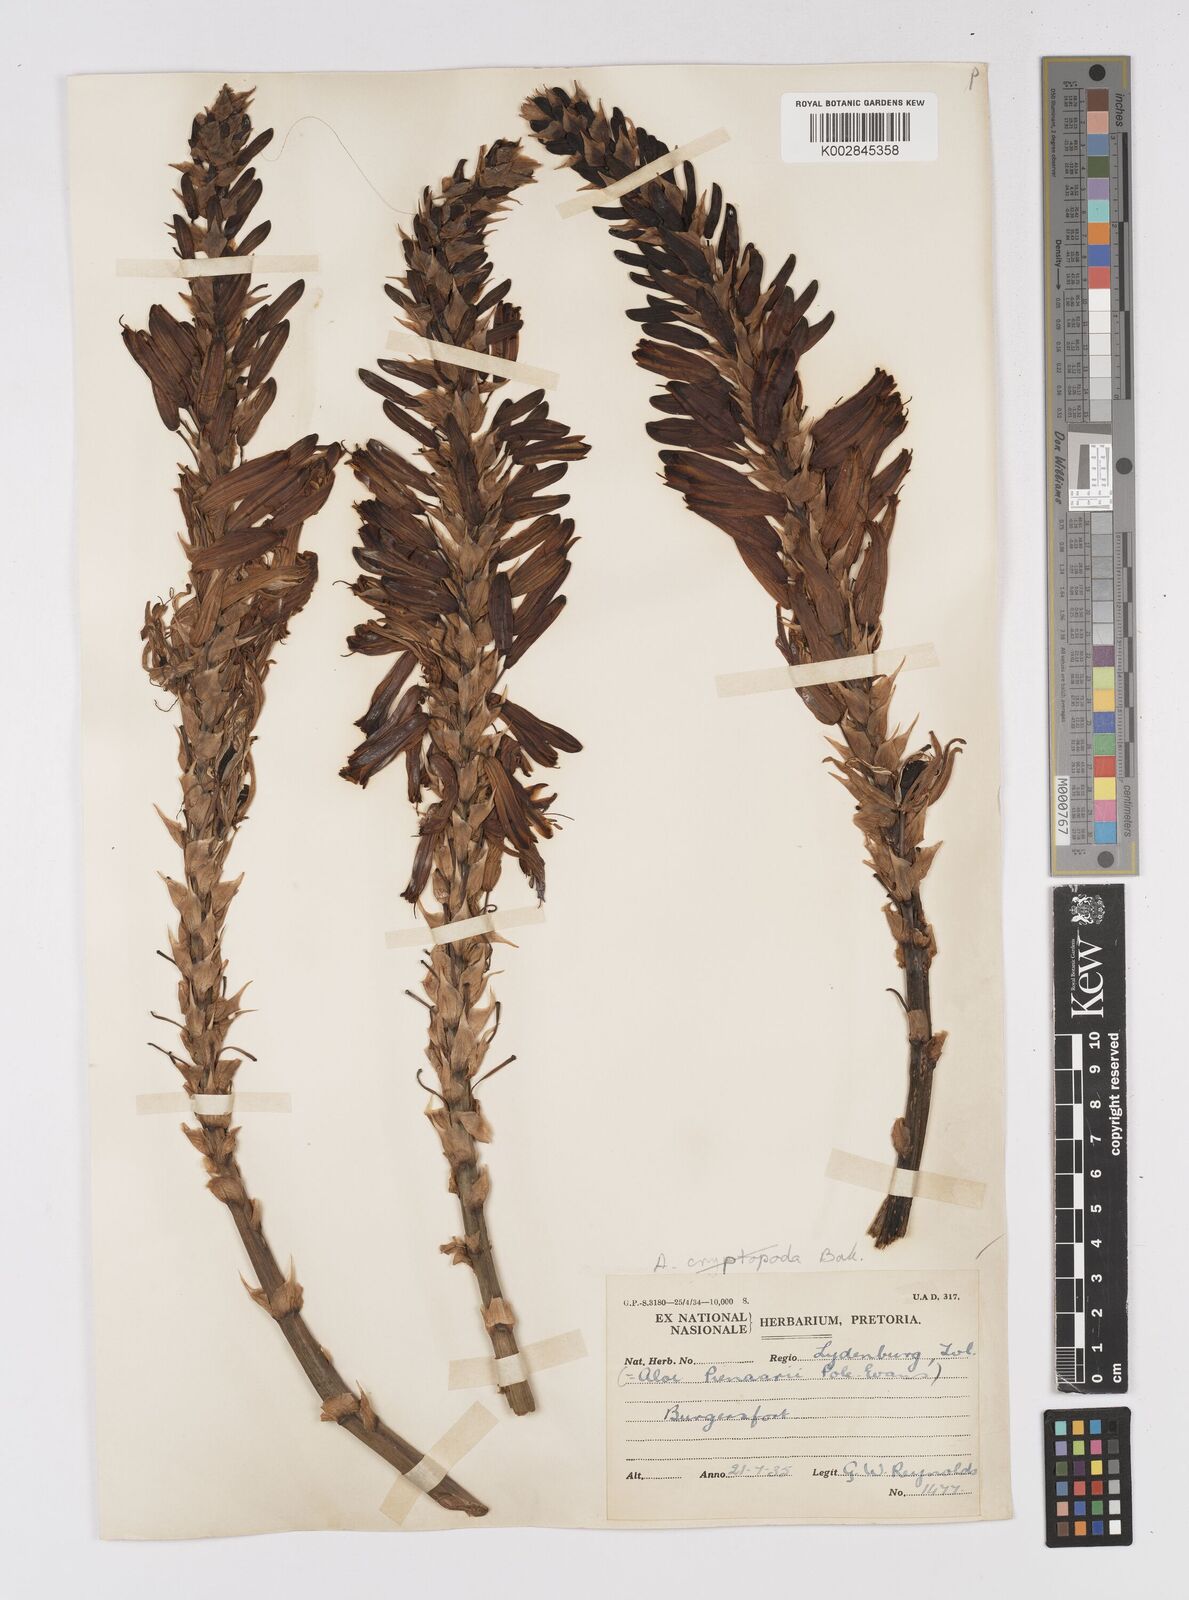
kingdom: Plantae
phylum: Tracheophyta
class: Liliopsida
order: Asparagales
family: Asphodelaceae
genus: Aloe
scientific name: Aloe pienaarii
